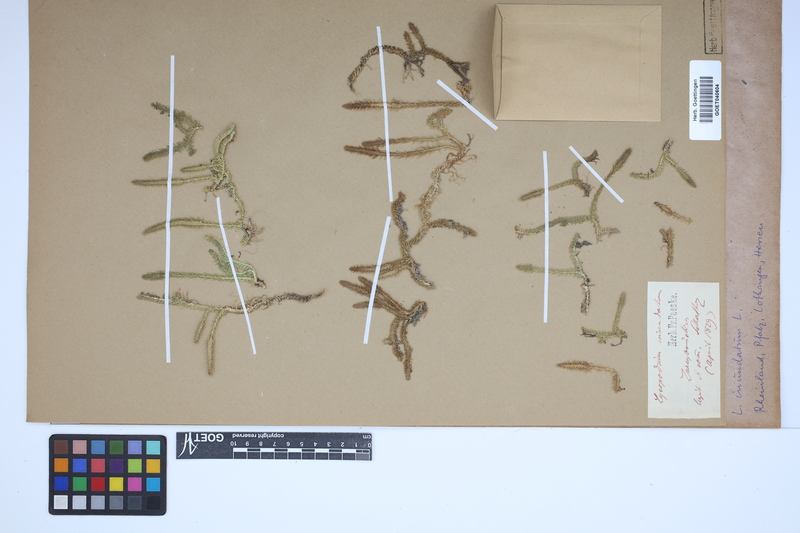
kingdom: Plantae
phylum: Tracheophyta
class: Lycopodiopsida
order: Lycopodiales
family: Lycopodiaceae
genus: Lycopodiella
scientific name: Lycopodiella inundata
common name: Marsh clubmoss
